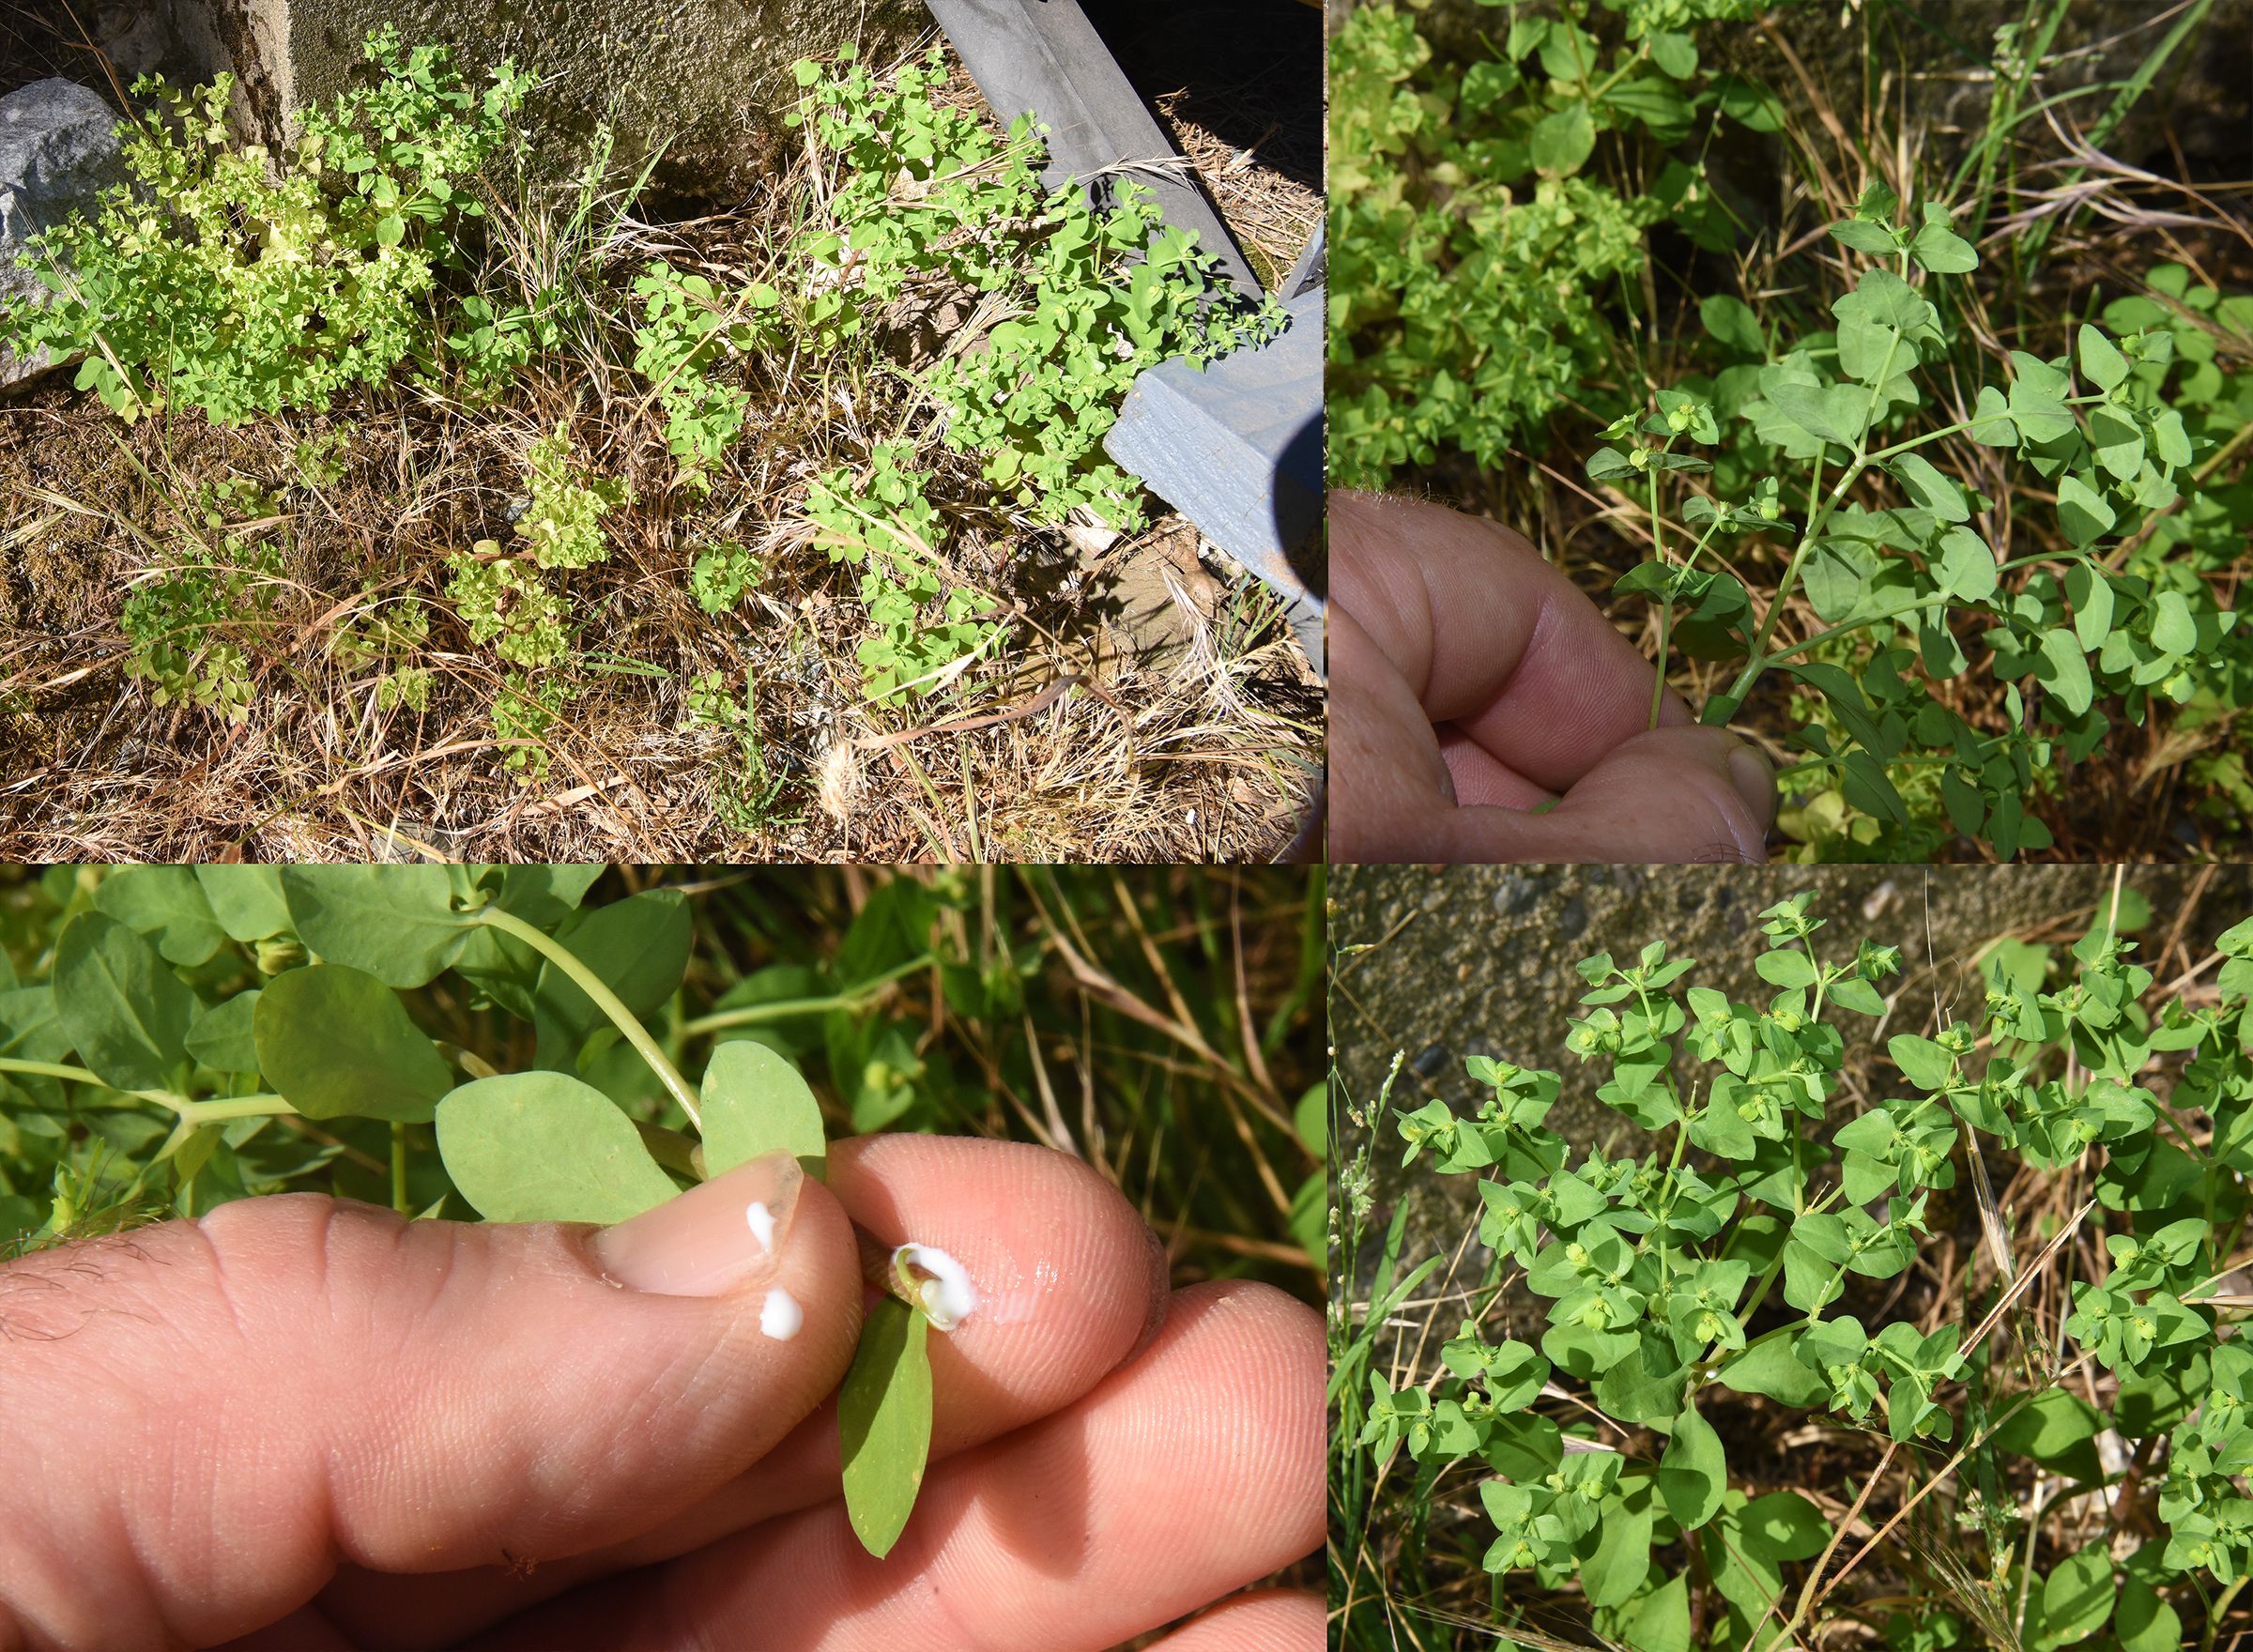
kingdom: Plantae
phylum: Tracheophyta
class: Magnoliopsida
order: Malpighiales
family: Euphorbiaceae
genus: Euphorbia
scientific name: Euphorbia peplus
